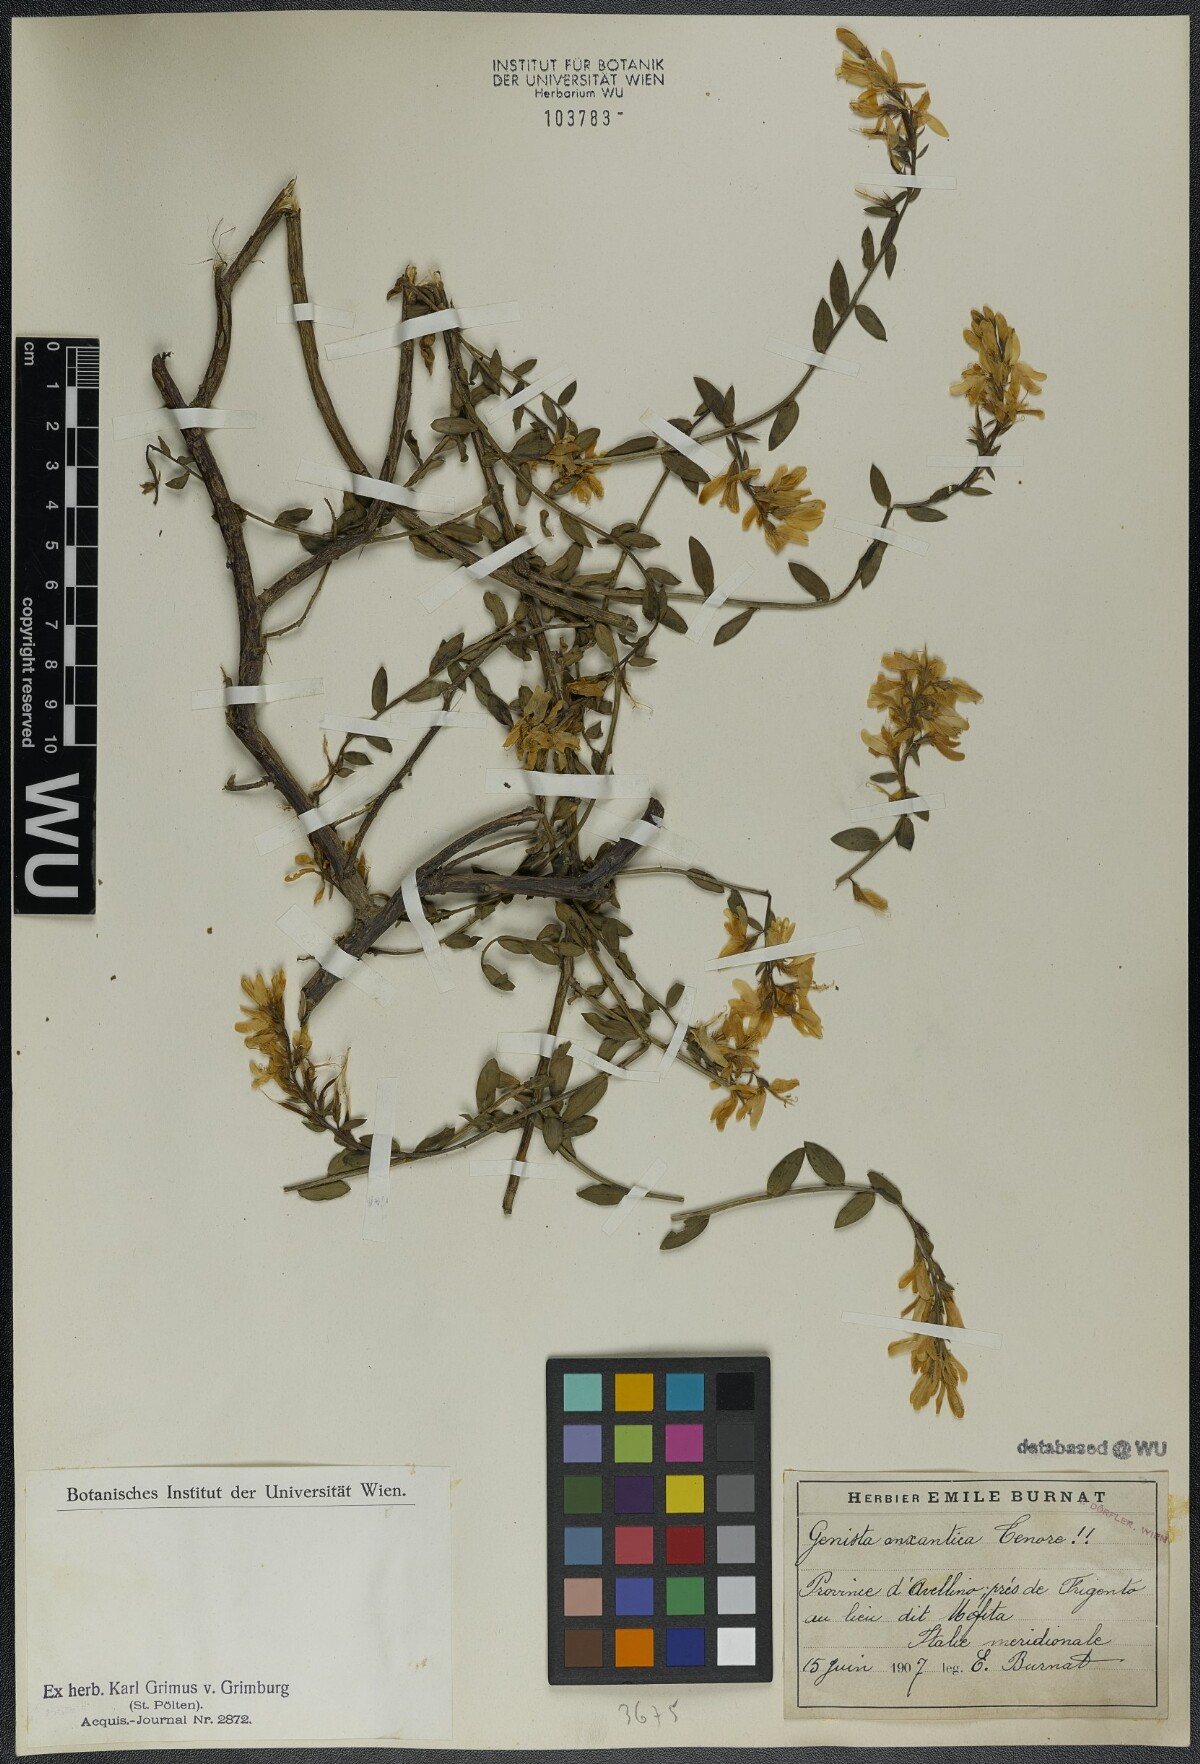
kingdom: Plantae
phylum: Tracheophyta
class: Magnoliopsida
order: Fabales
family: Fabaceae
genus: Genista
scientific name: Genista tinctoria
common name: Dyer's greenweed
